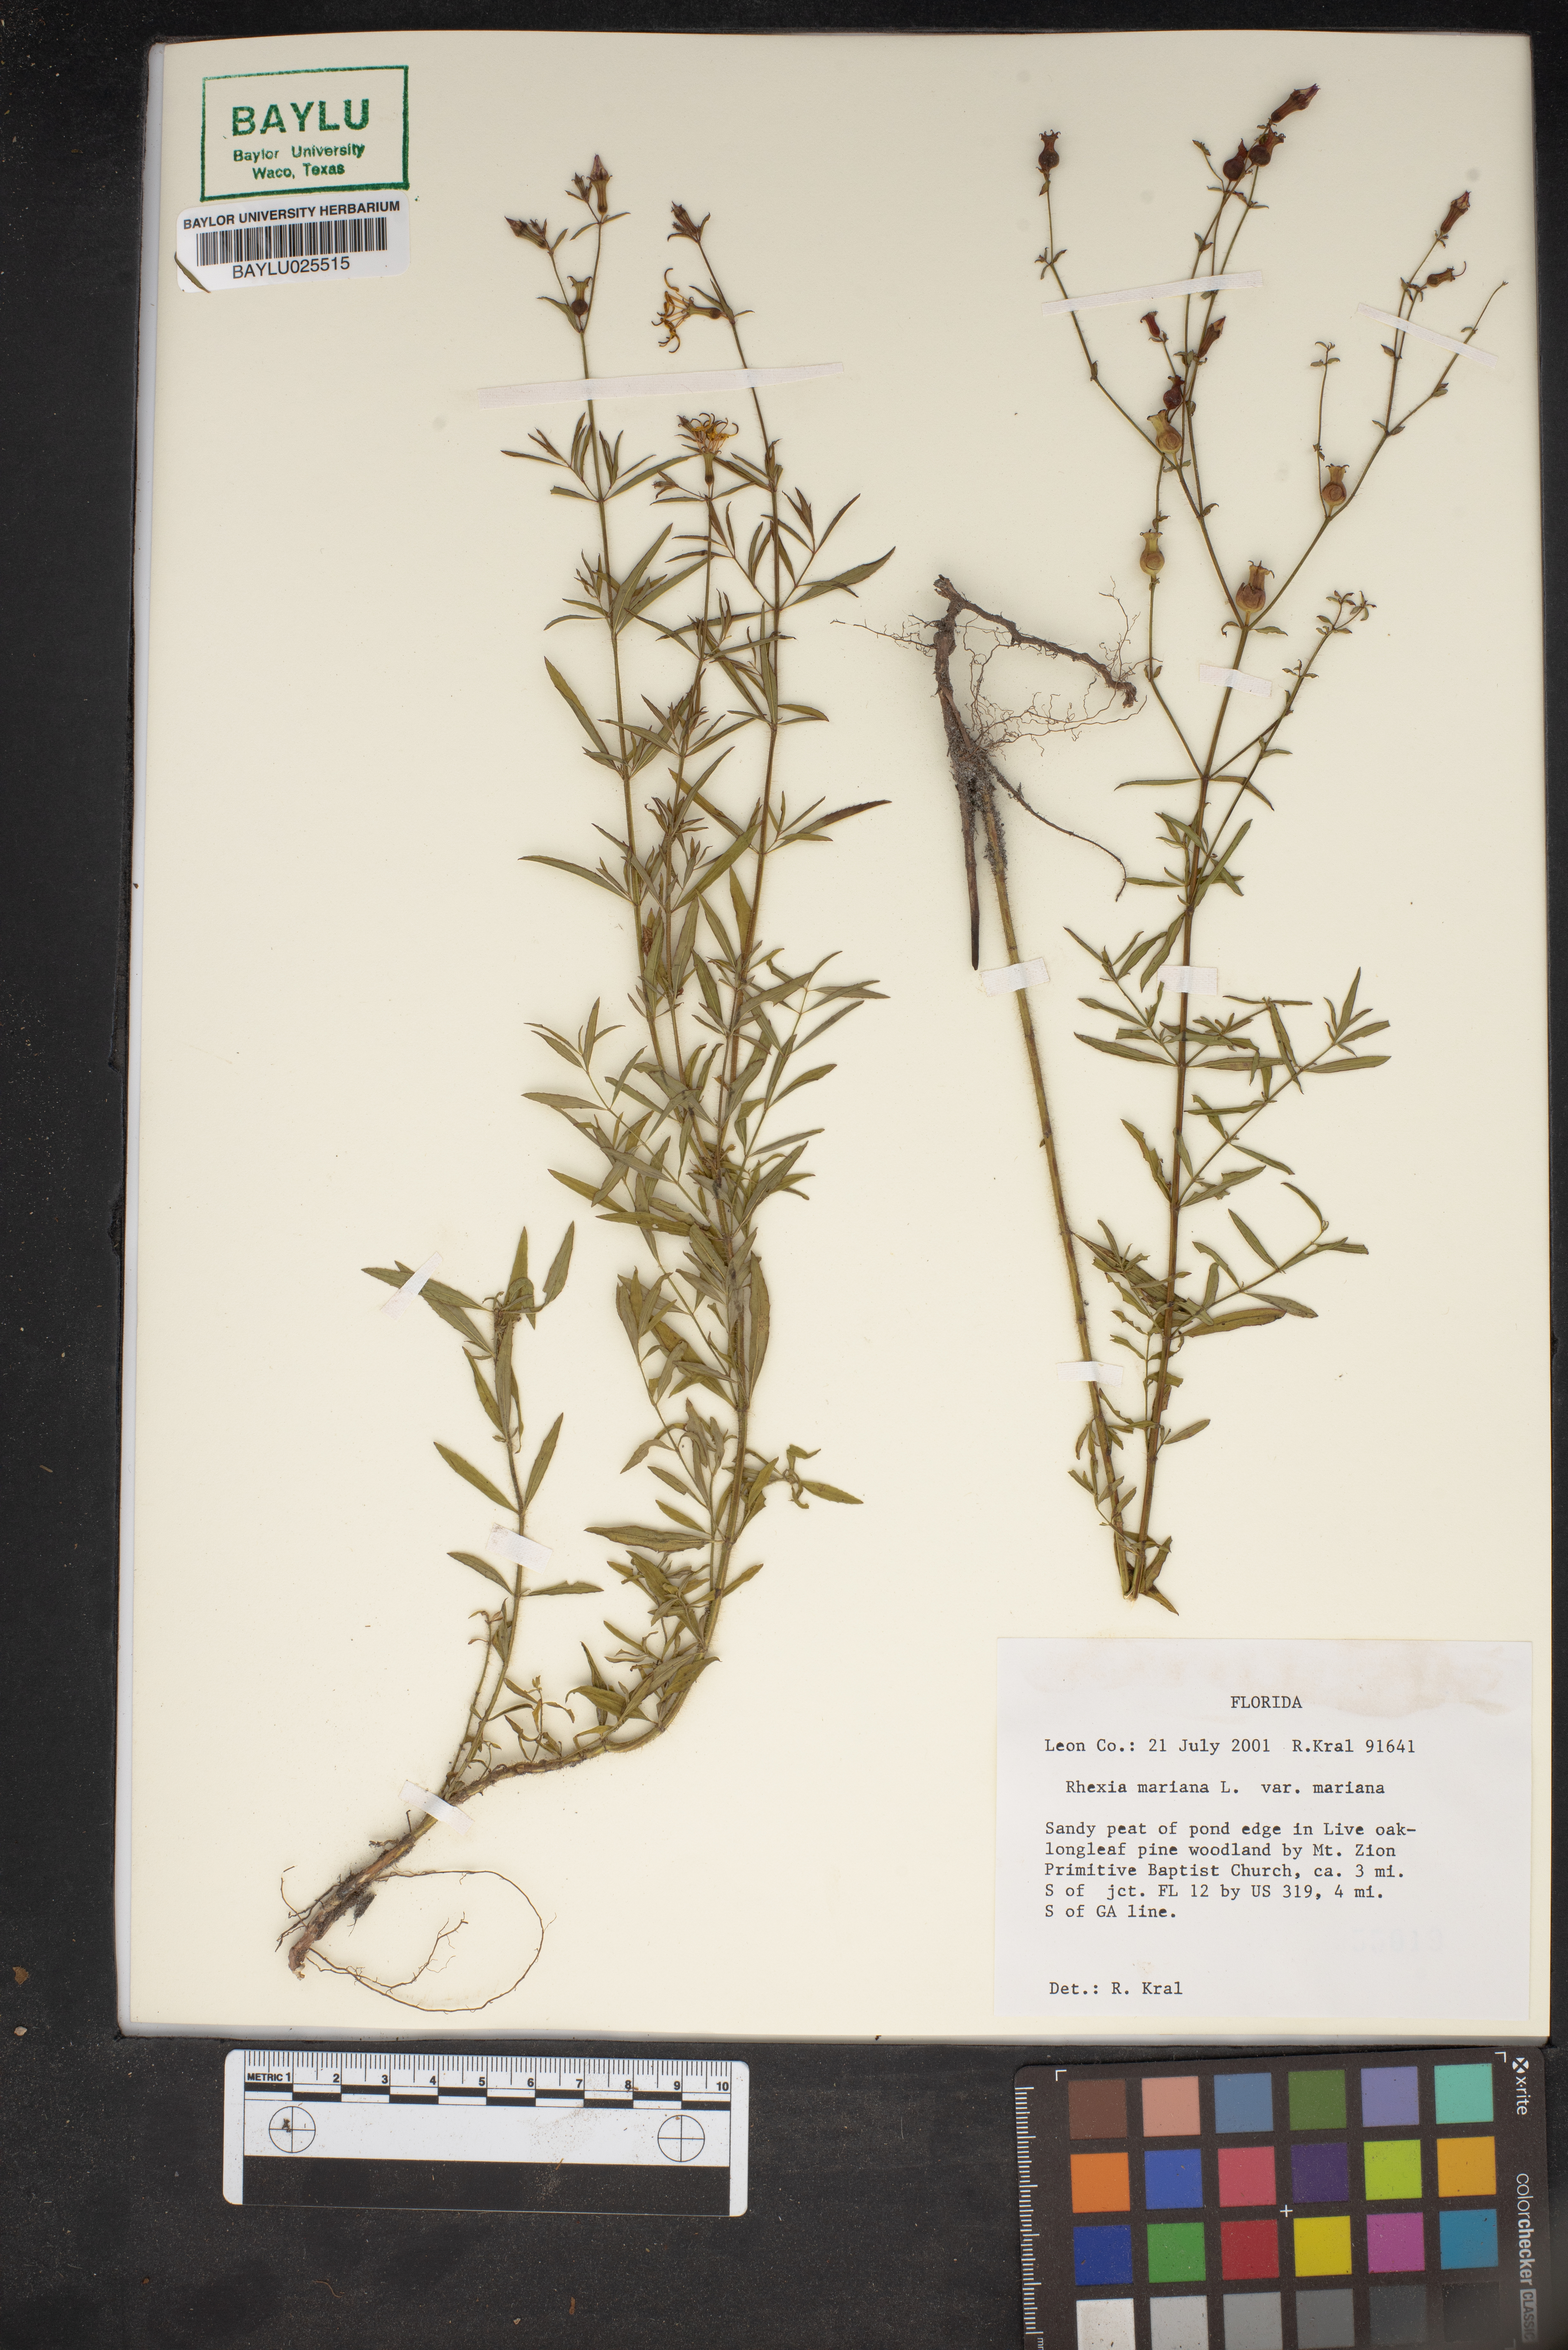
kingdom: Plantae
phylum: Tracheophyta
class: Magnoliopsida
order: Myrtales
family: Melastomataceae
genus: Rhexia
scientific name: Rhexia mariana
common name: Dull meadow-pitcher
